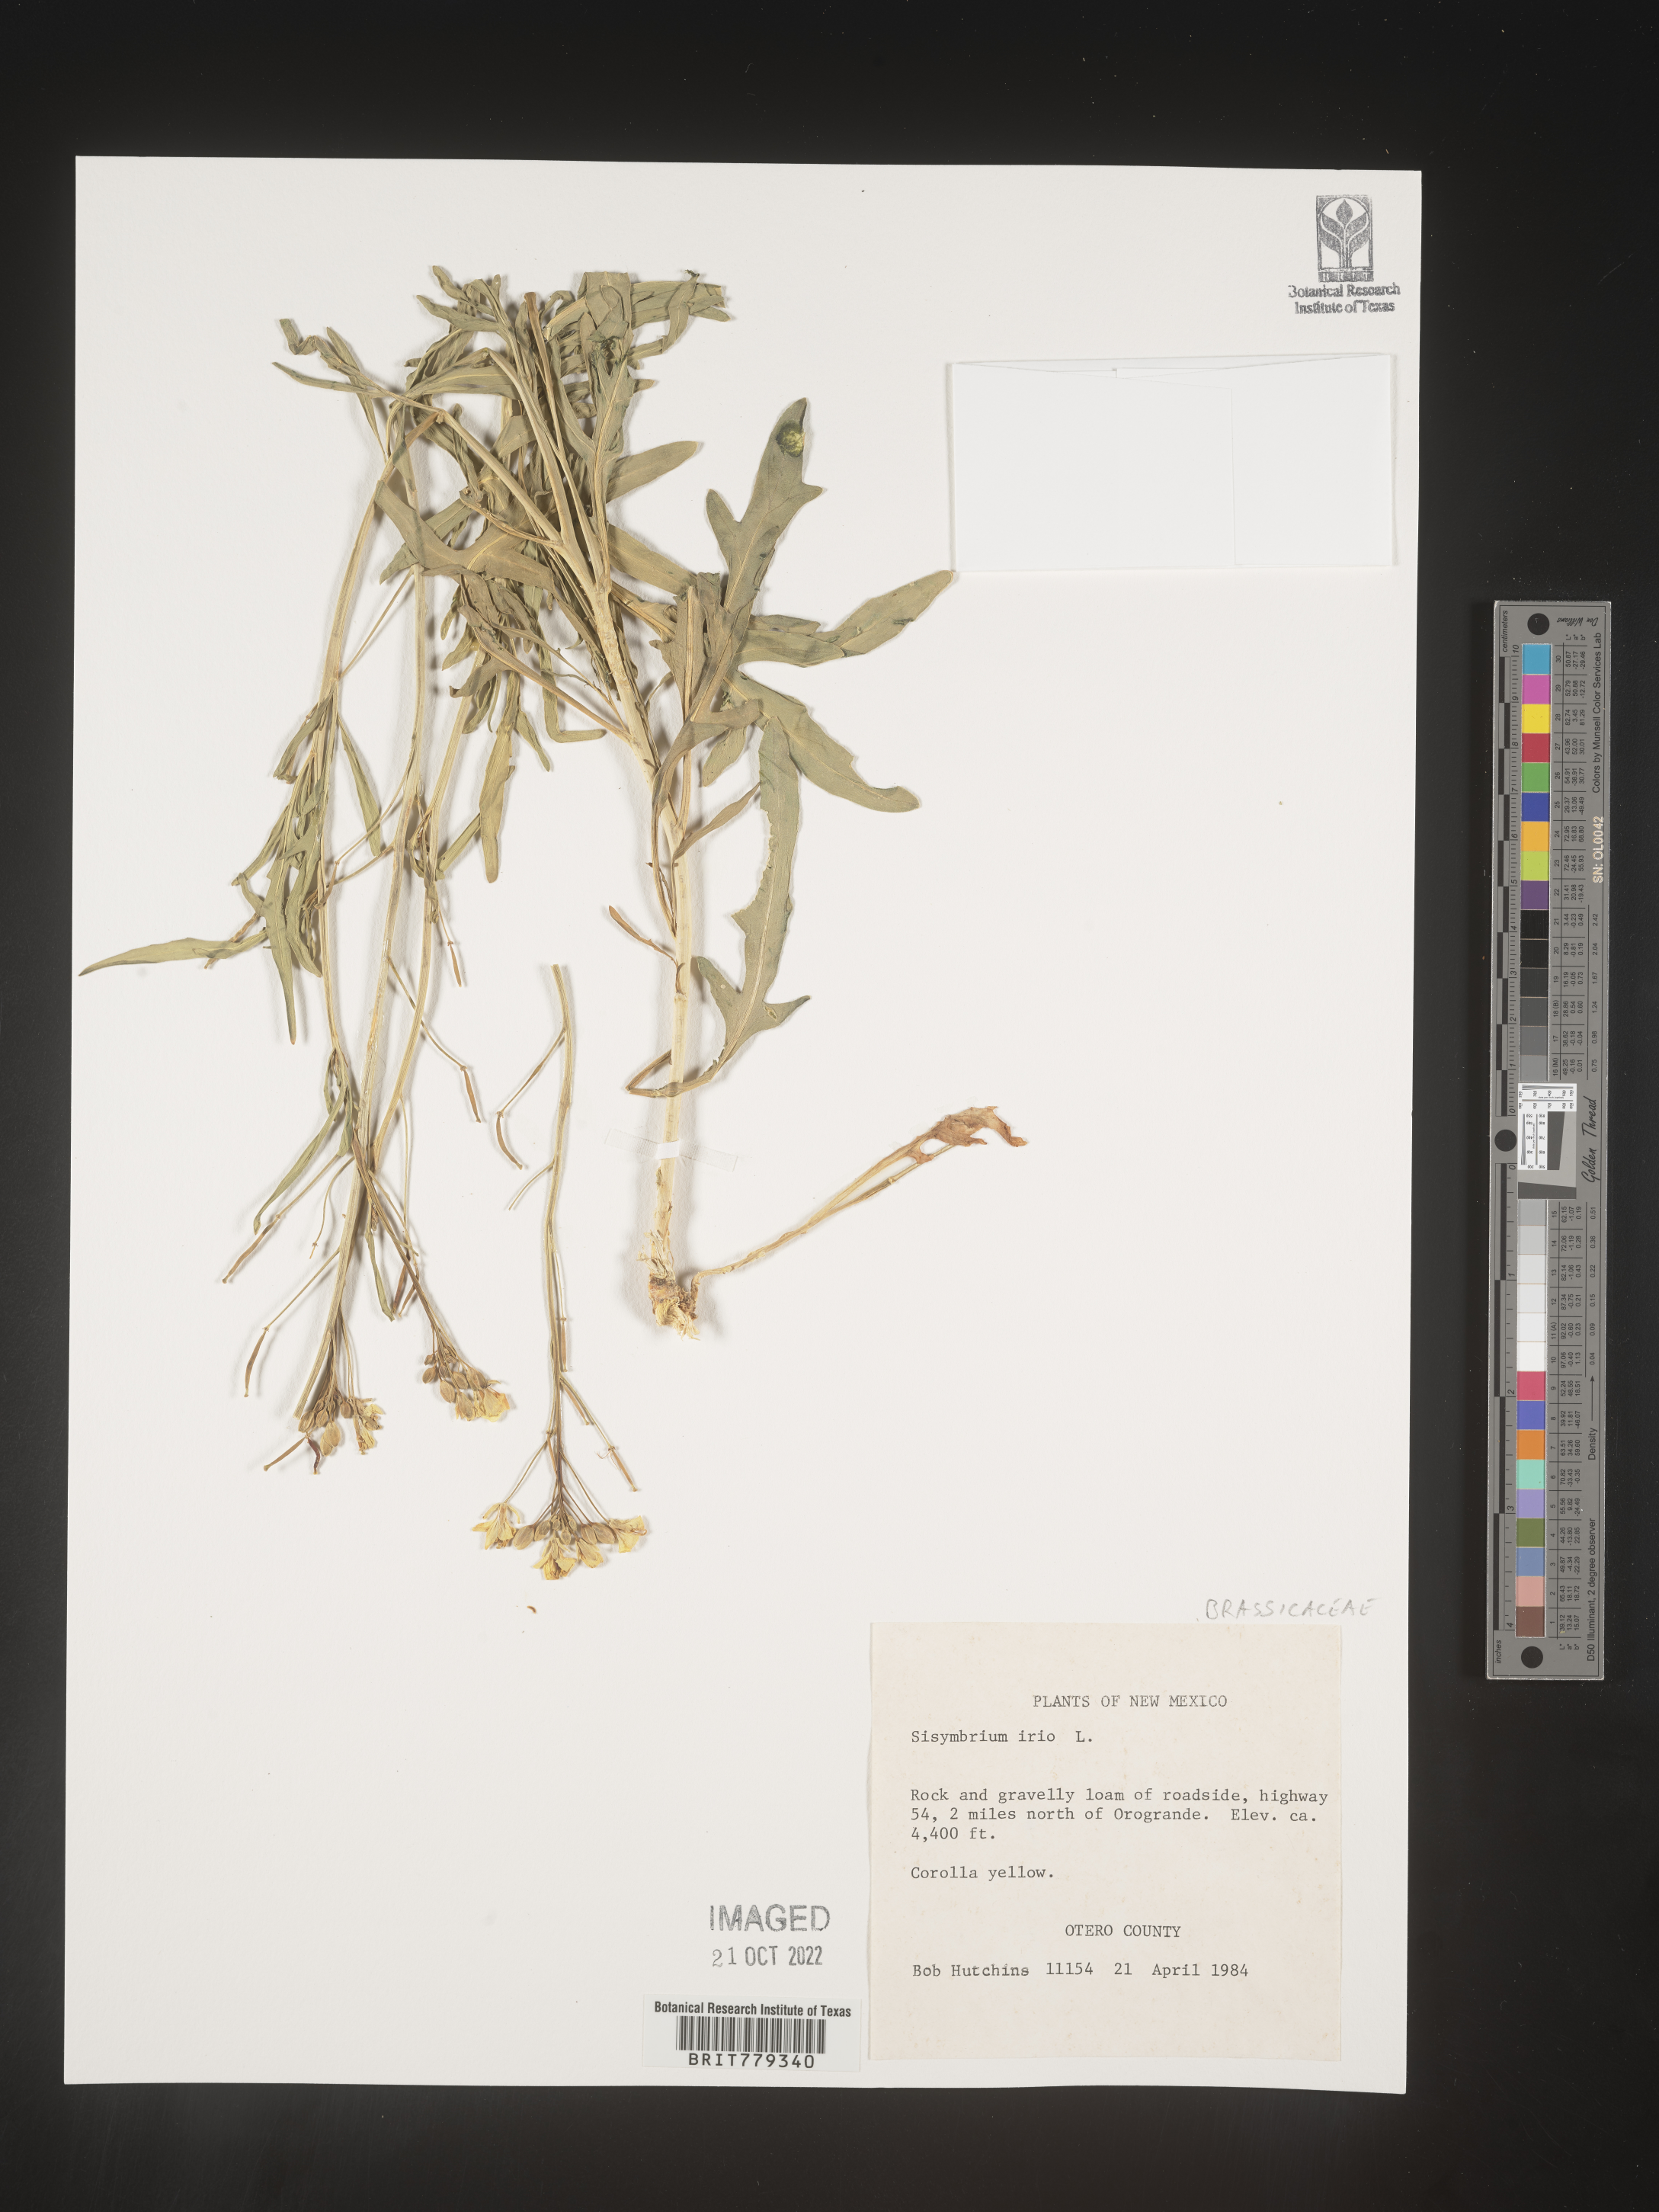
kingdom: Plantae
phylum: Tracheophyta
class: Magnoliopsida
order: Brassicales
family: Brassicaceae
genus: Sisymbrium
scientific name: Sisymbrium
